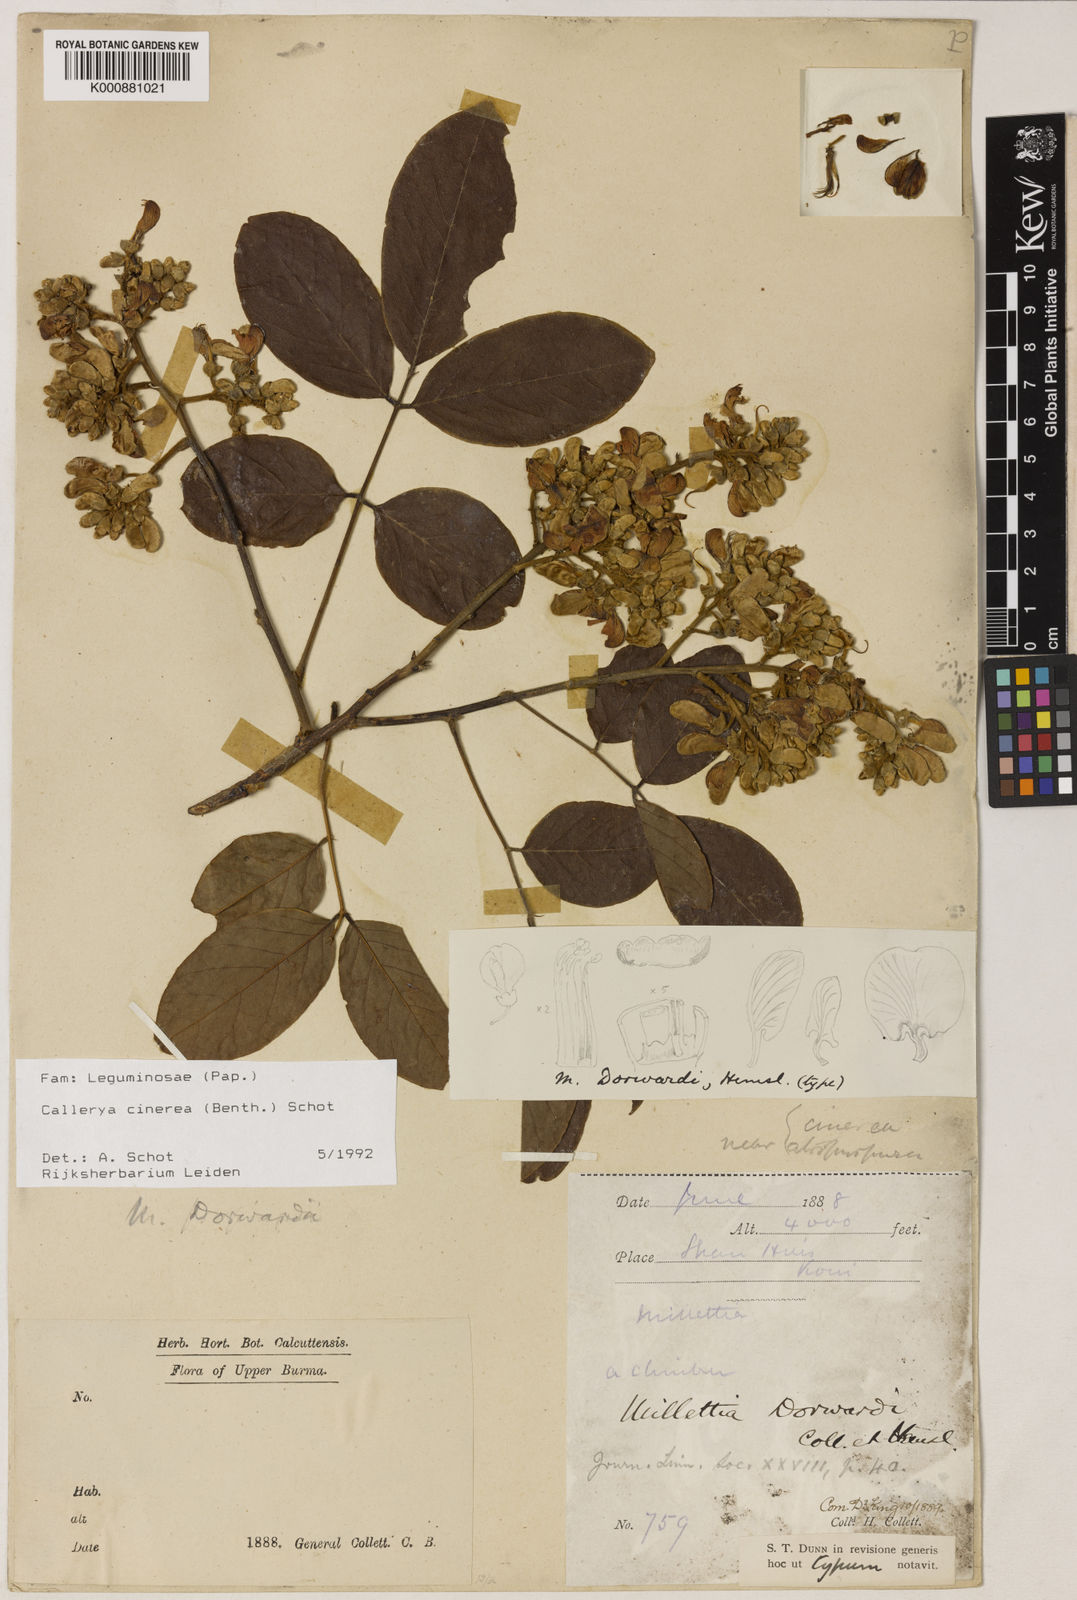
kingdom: Plantae
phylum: Tracheophyta
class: Magnoliopsida
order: Fabales
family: Fabaceae
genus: Callerya
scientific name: Callerya cinerea
